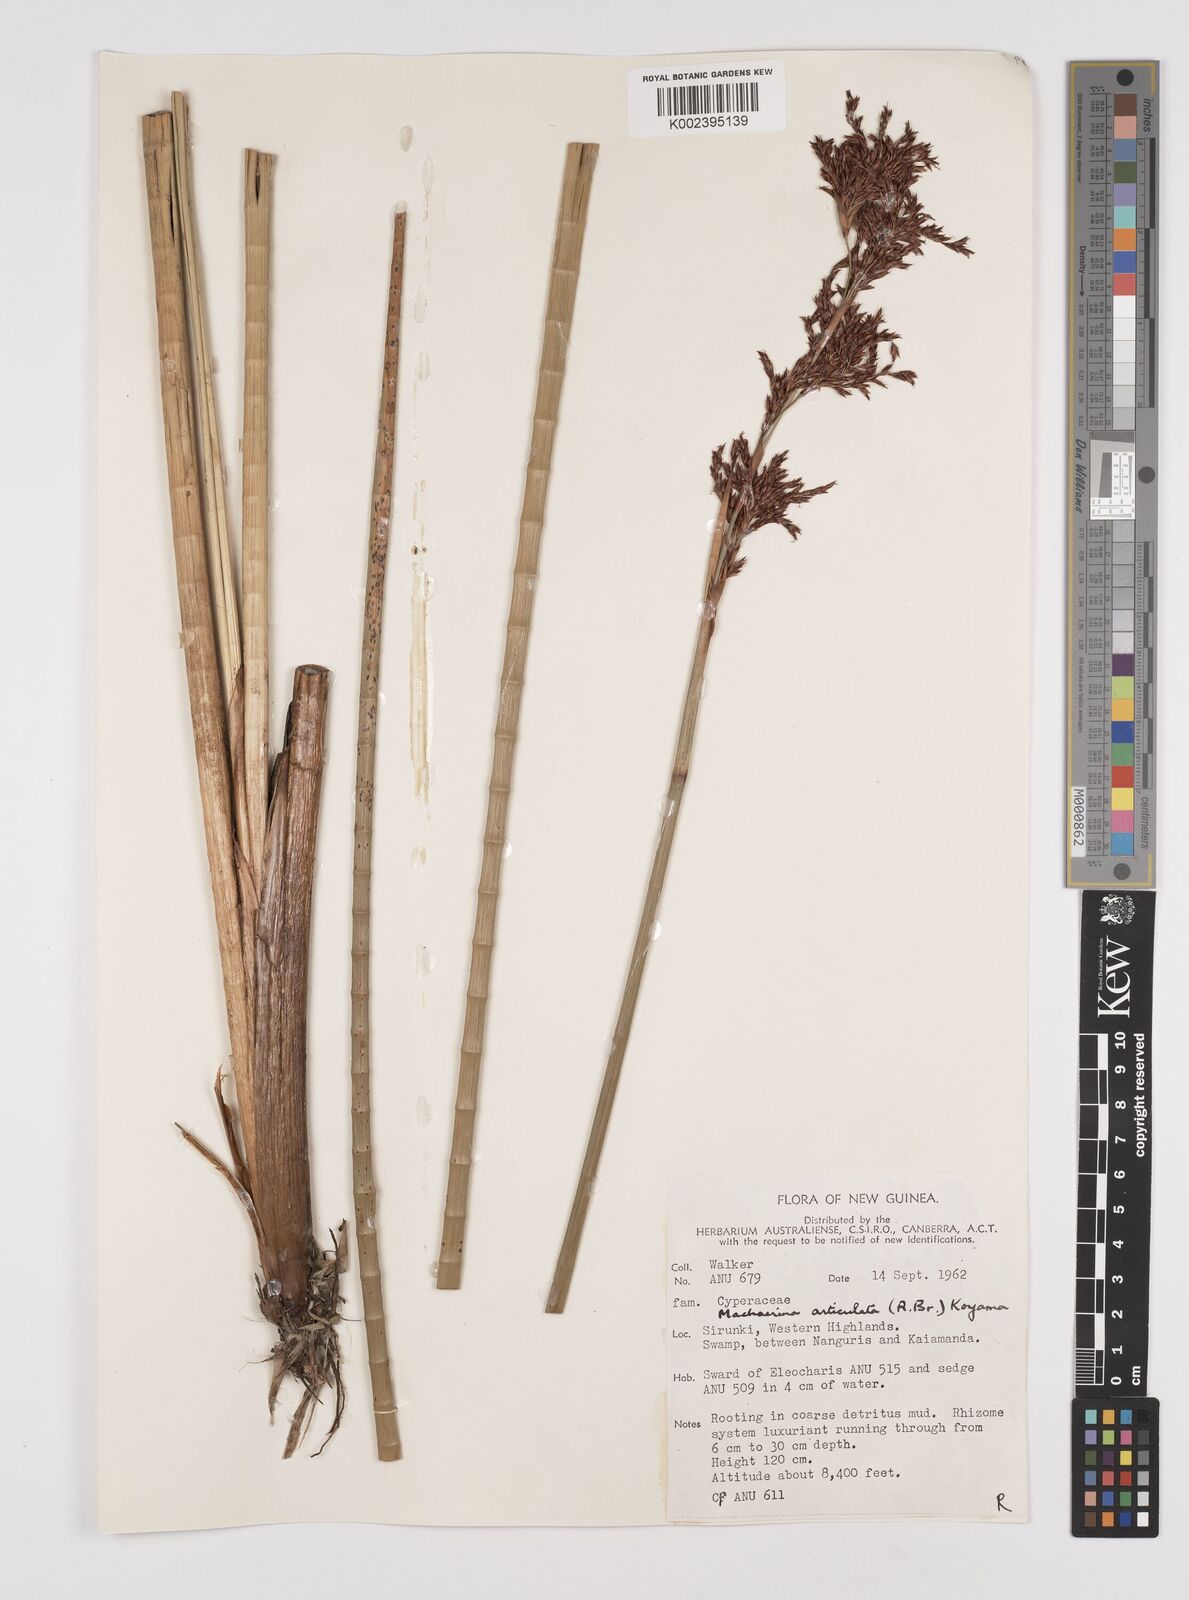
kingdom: Plantae
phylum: Tracheophyta
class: Liliopsida
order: Poales
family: Cyperaceae
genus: Machaerina
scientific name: Machaerina articulata
